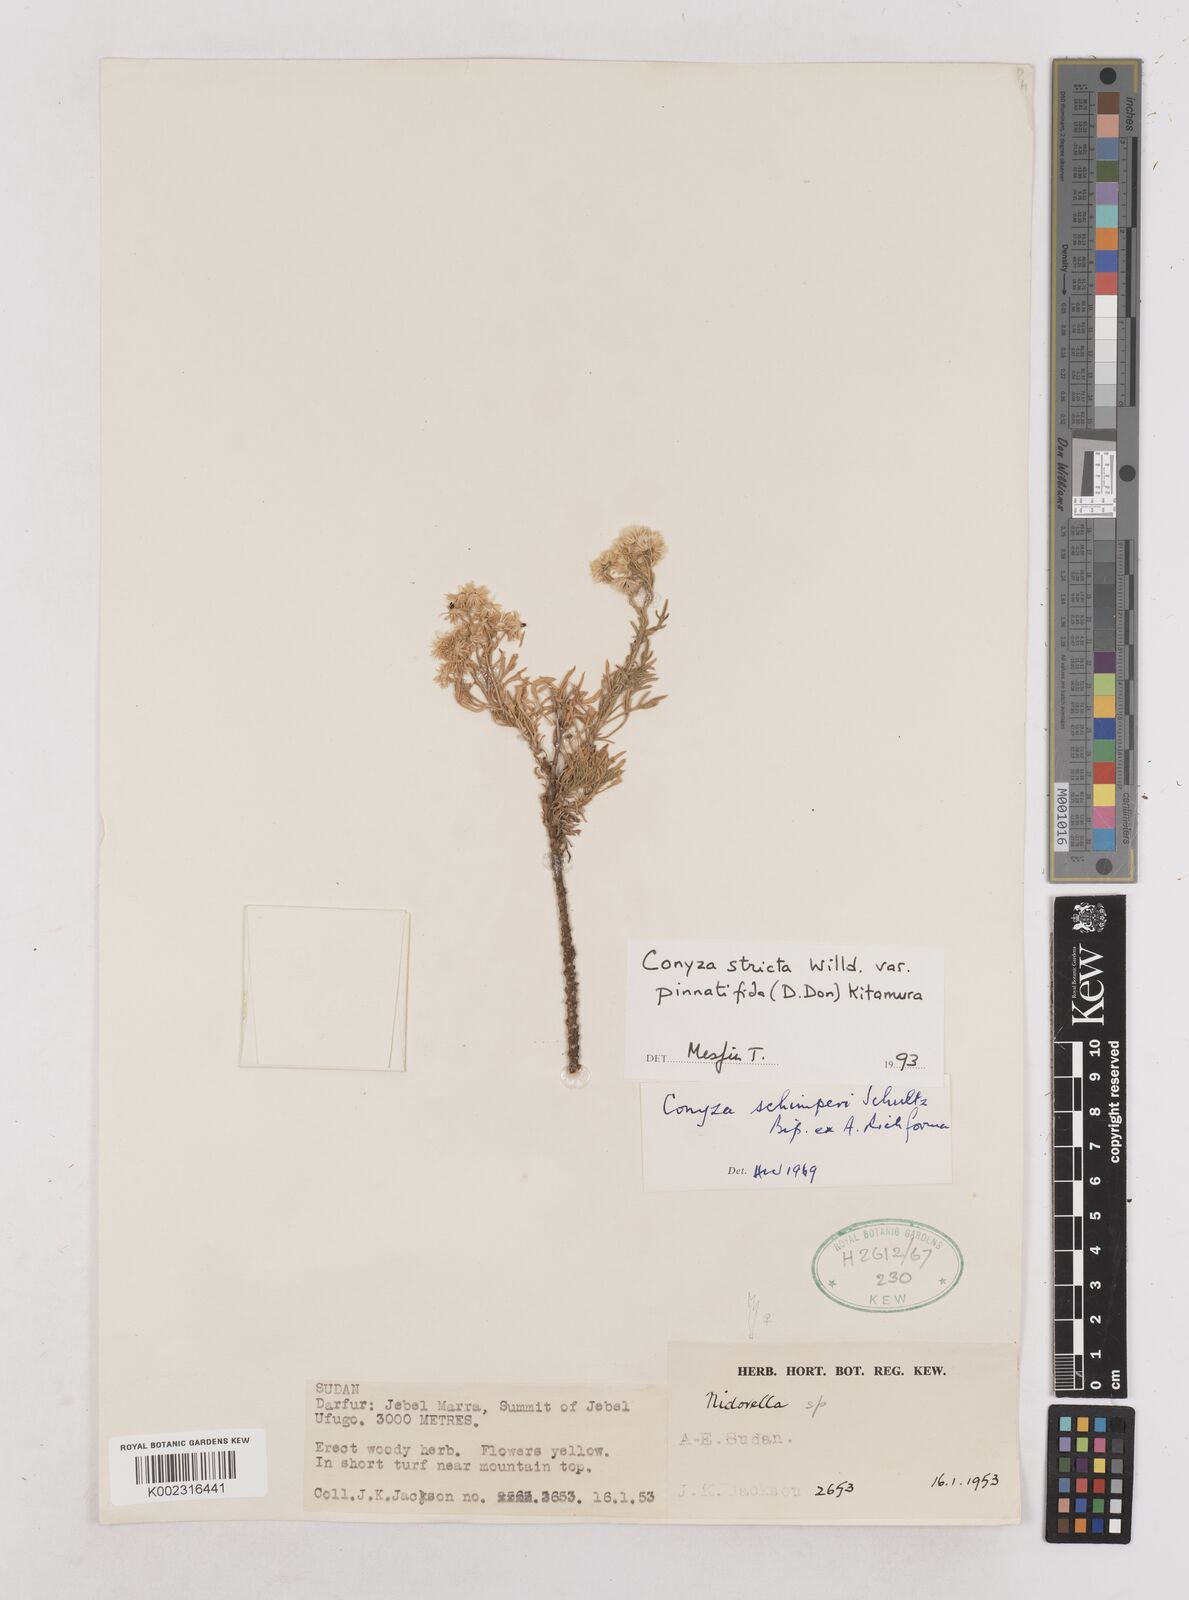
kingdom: Plantae
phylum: Tracheophyta
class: Magnoliopsida
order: Asterales
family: Asteraceae
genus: Nidorella
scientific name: Nidorella triloba
